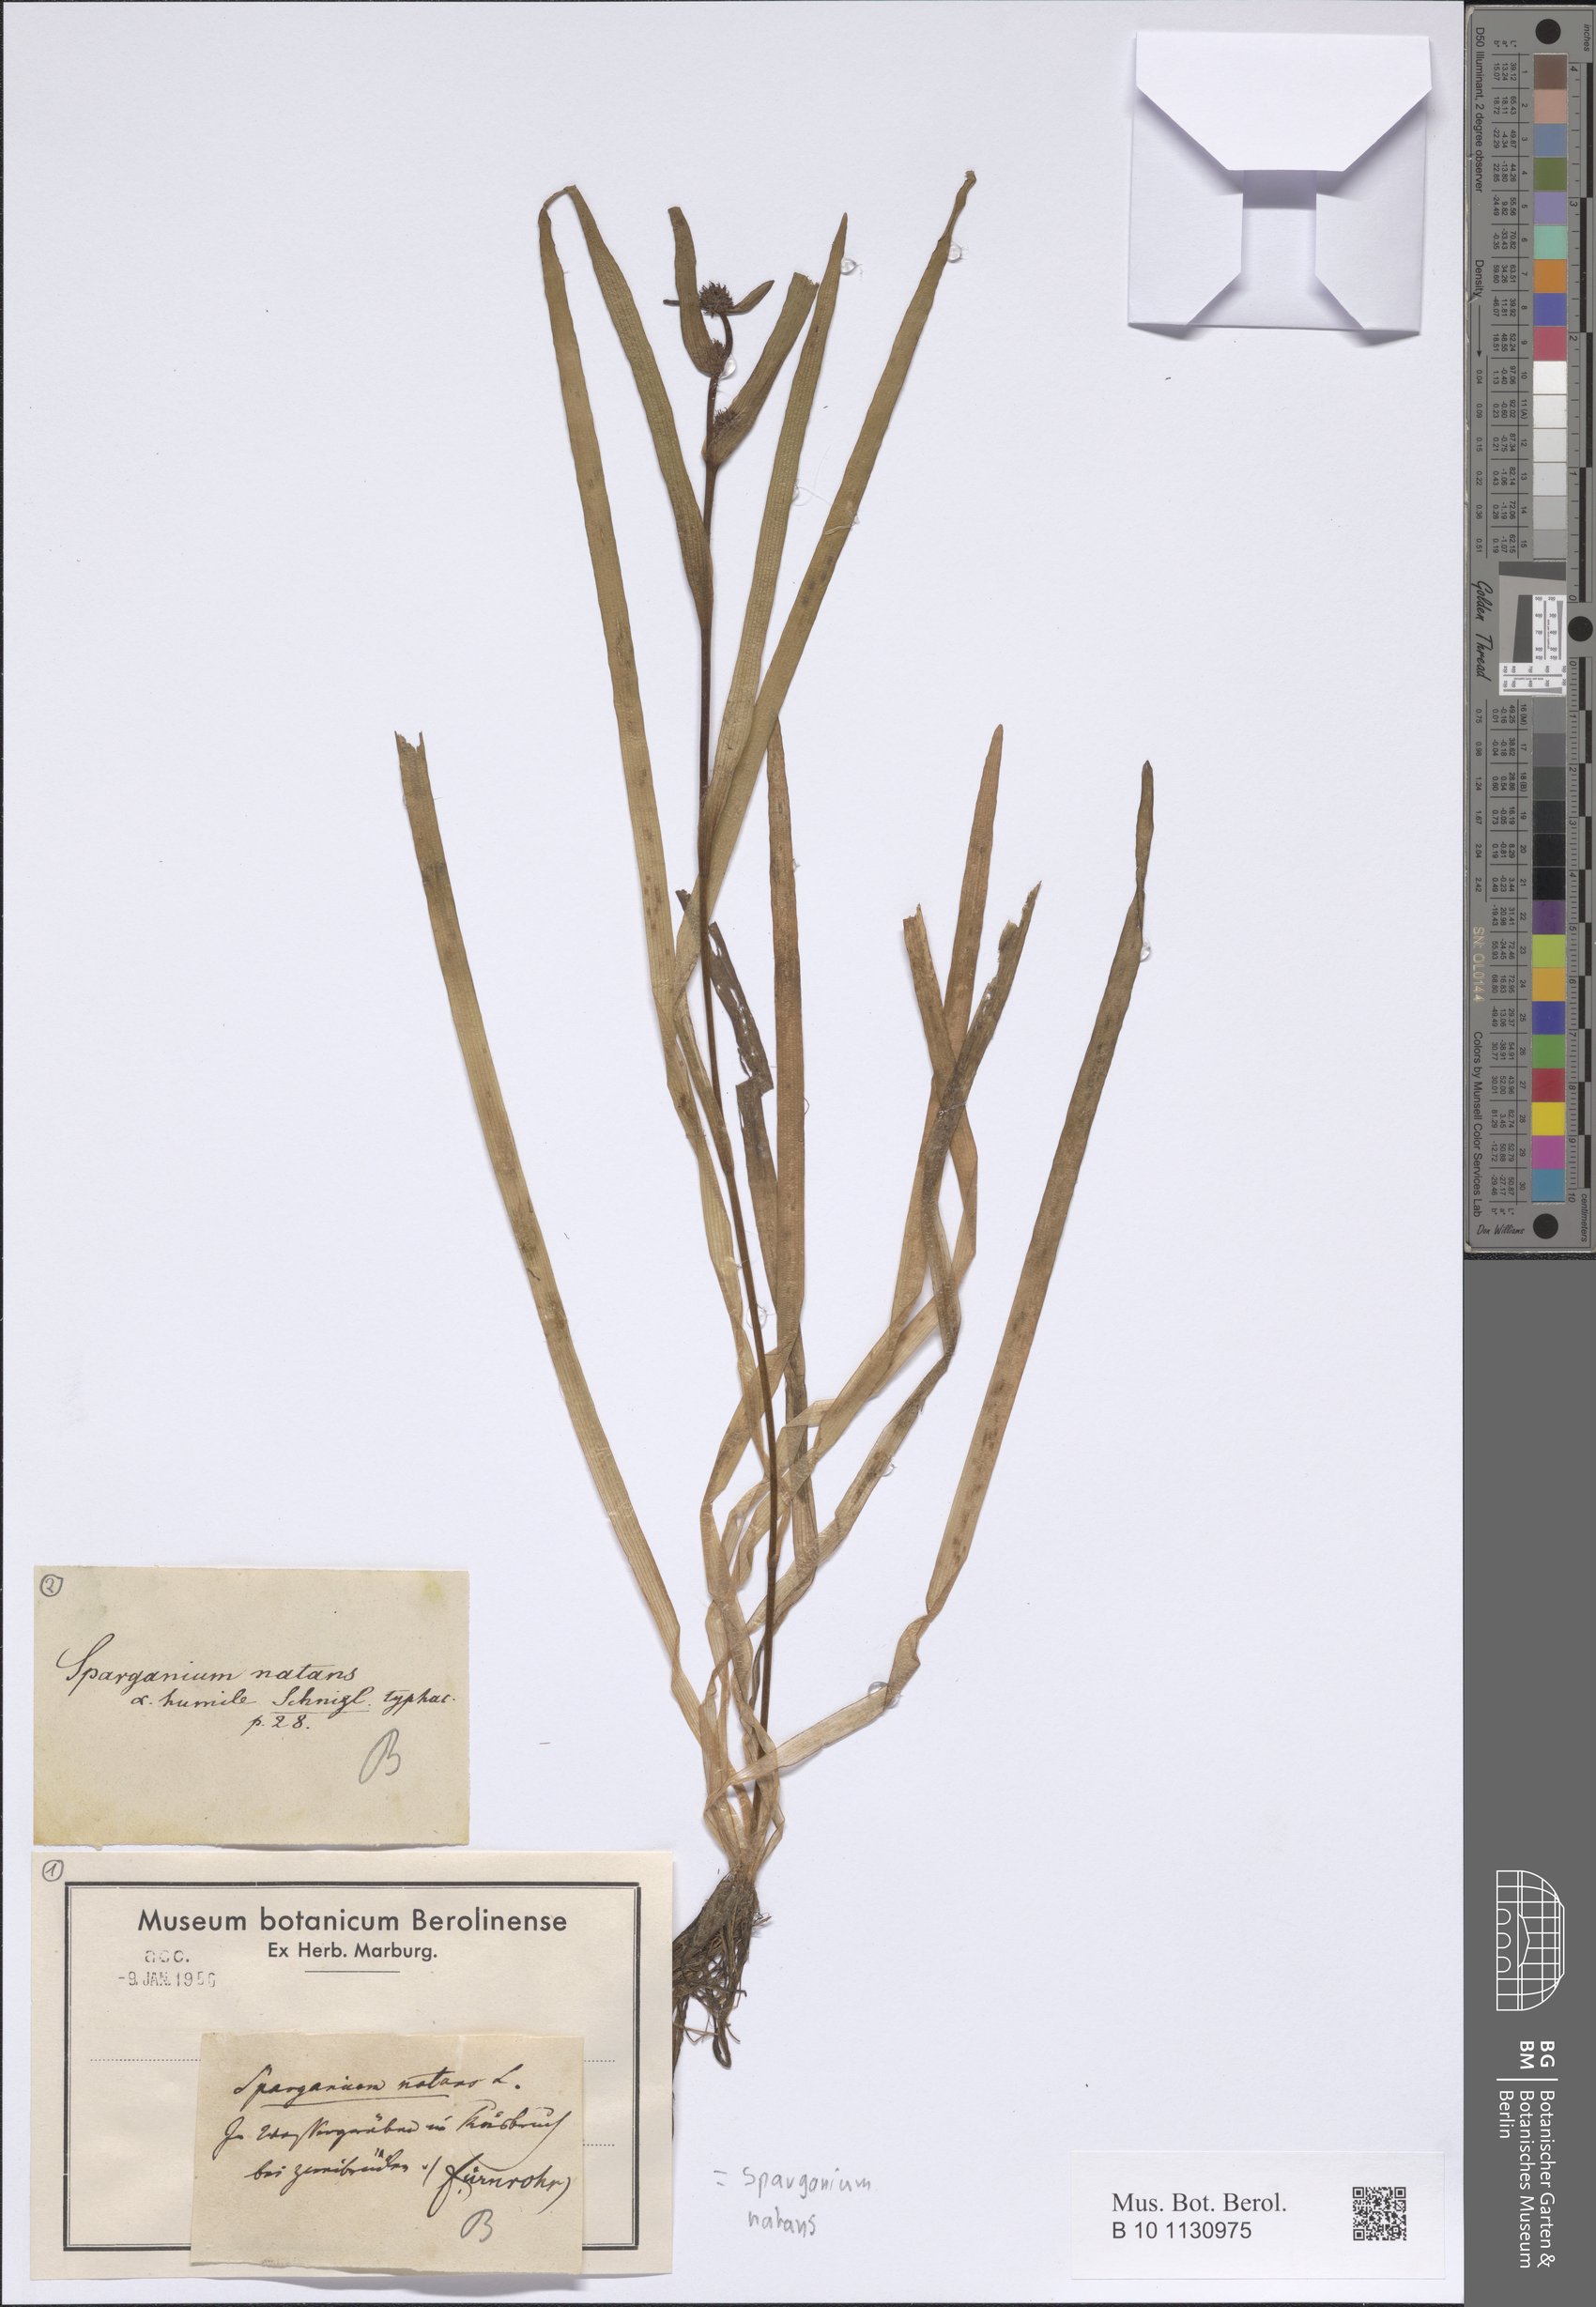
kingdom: Plantae
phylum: Tracheophyta
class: Liliopsida
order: Poales
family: Typhaceae
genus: Sparganium
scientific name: Sparganium natans
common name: Least bur-reed
